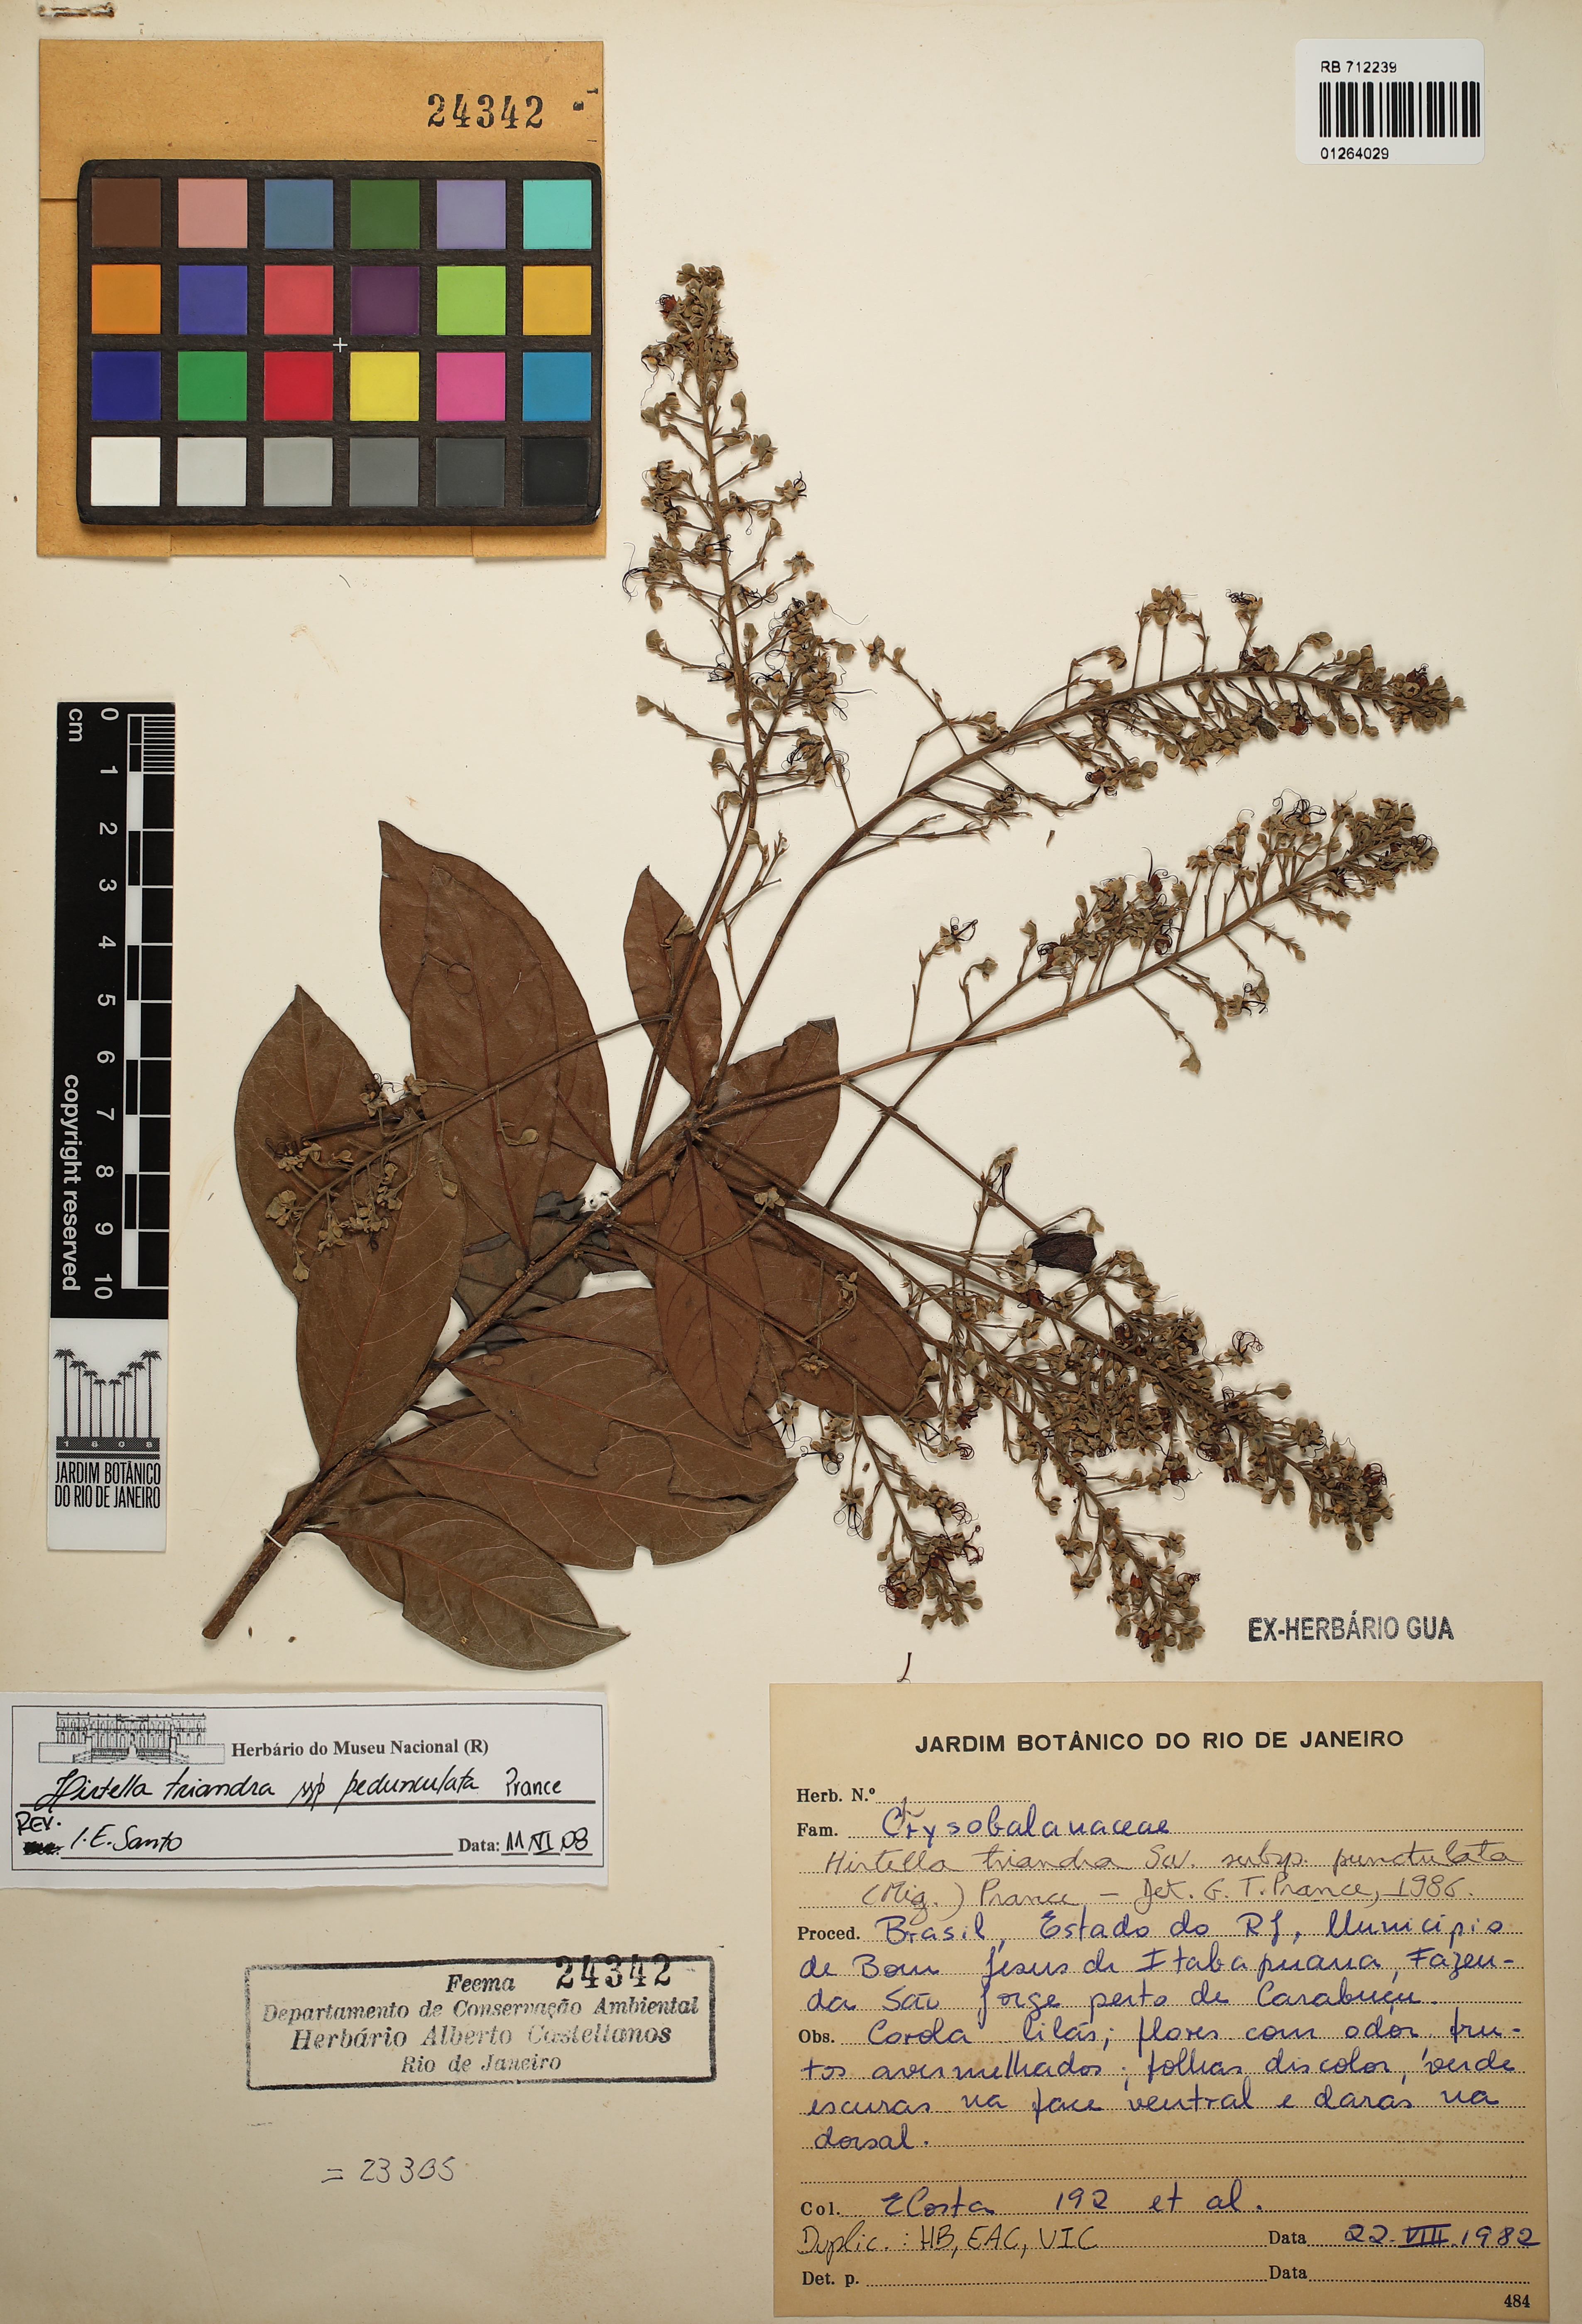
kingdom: Plantae
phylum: Tracheophyta
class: Magnoliopsida
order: Malpighiales
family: Chrysobalanaceae
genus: Hirtella
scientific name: Hirtella triandra
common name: Hairy plum
